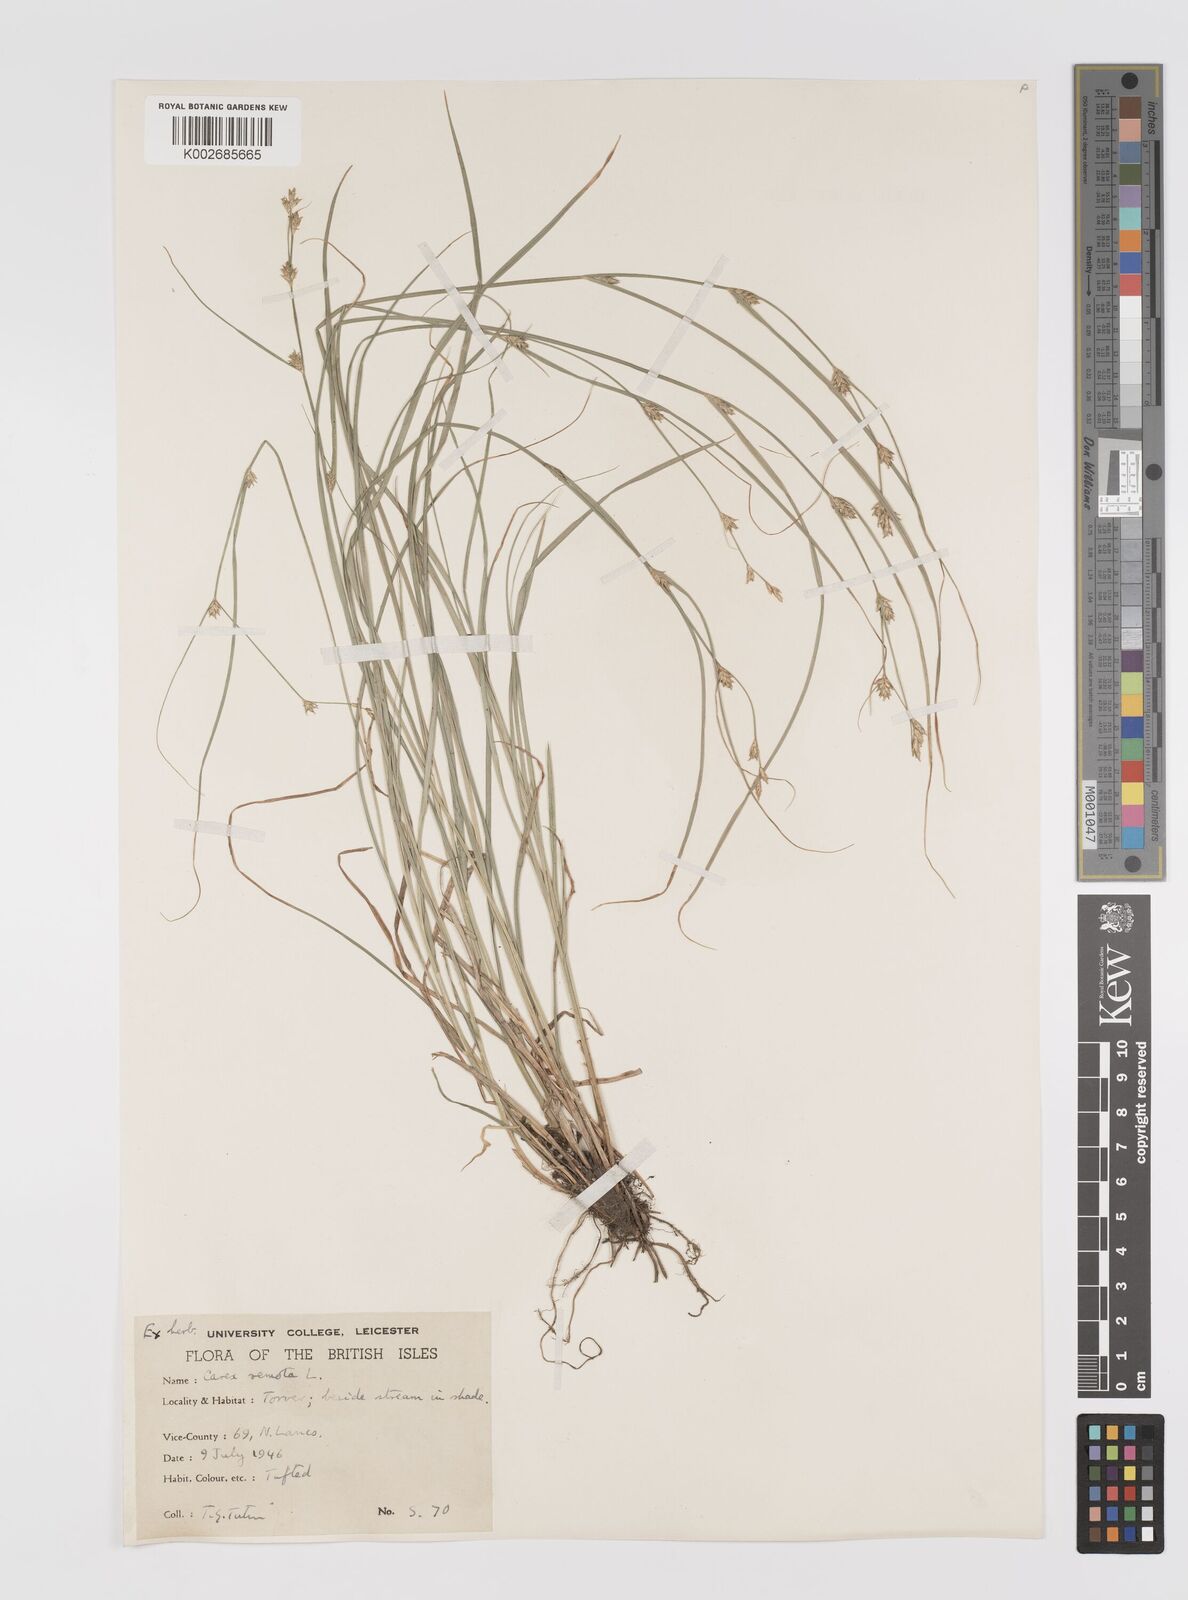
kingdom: Plantae
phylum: Tracheophyta
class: Liliopsida
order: Poales
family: Cyperaceae
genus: Carex
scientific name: Carex remota
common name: Remote sedge
